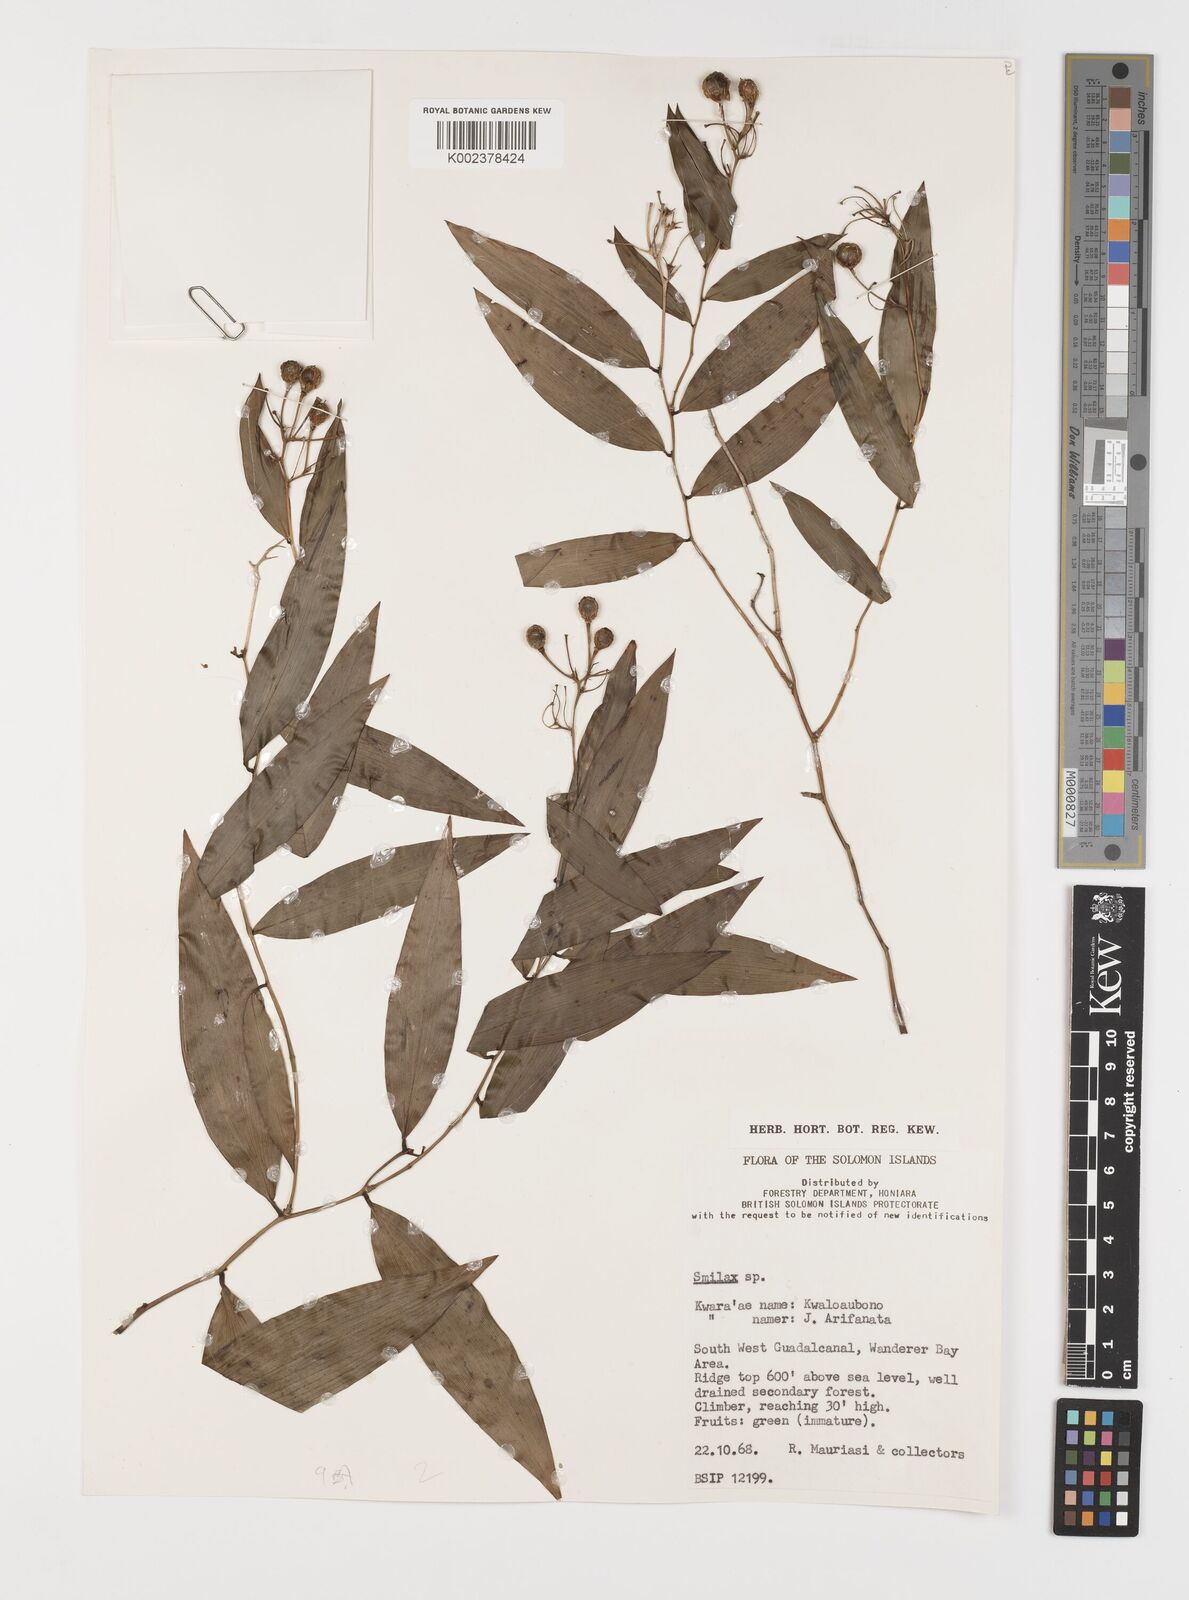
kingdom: Plantae
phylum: Tracheophyta
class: Liliopsida
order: Liliales
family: Smilacaceae
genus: Smilax
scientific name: Smilax
